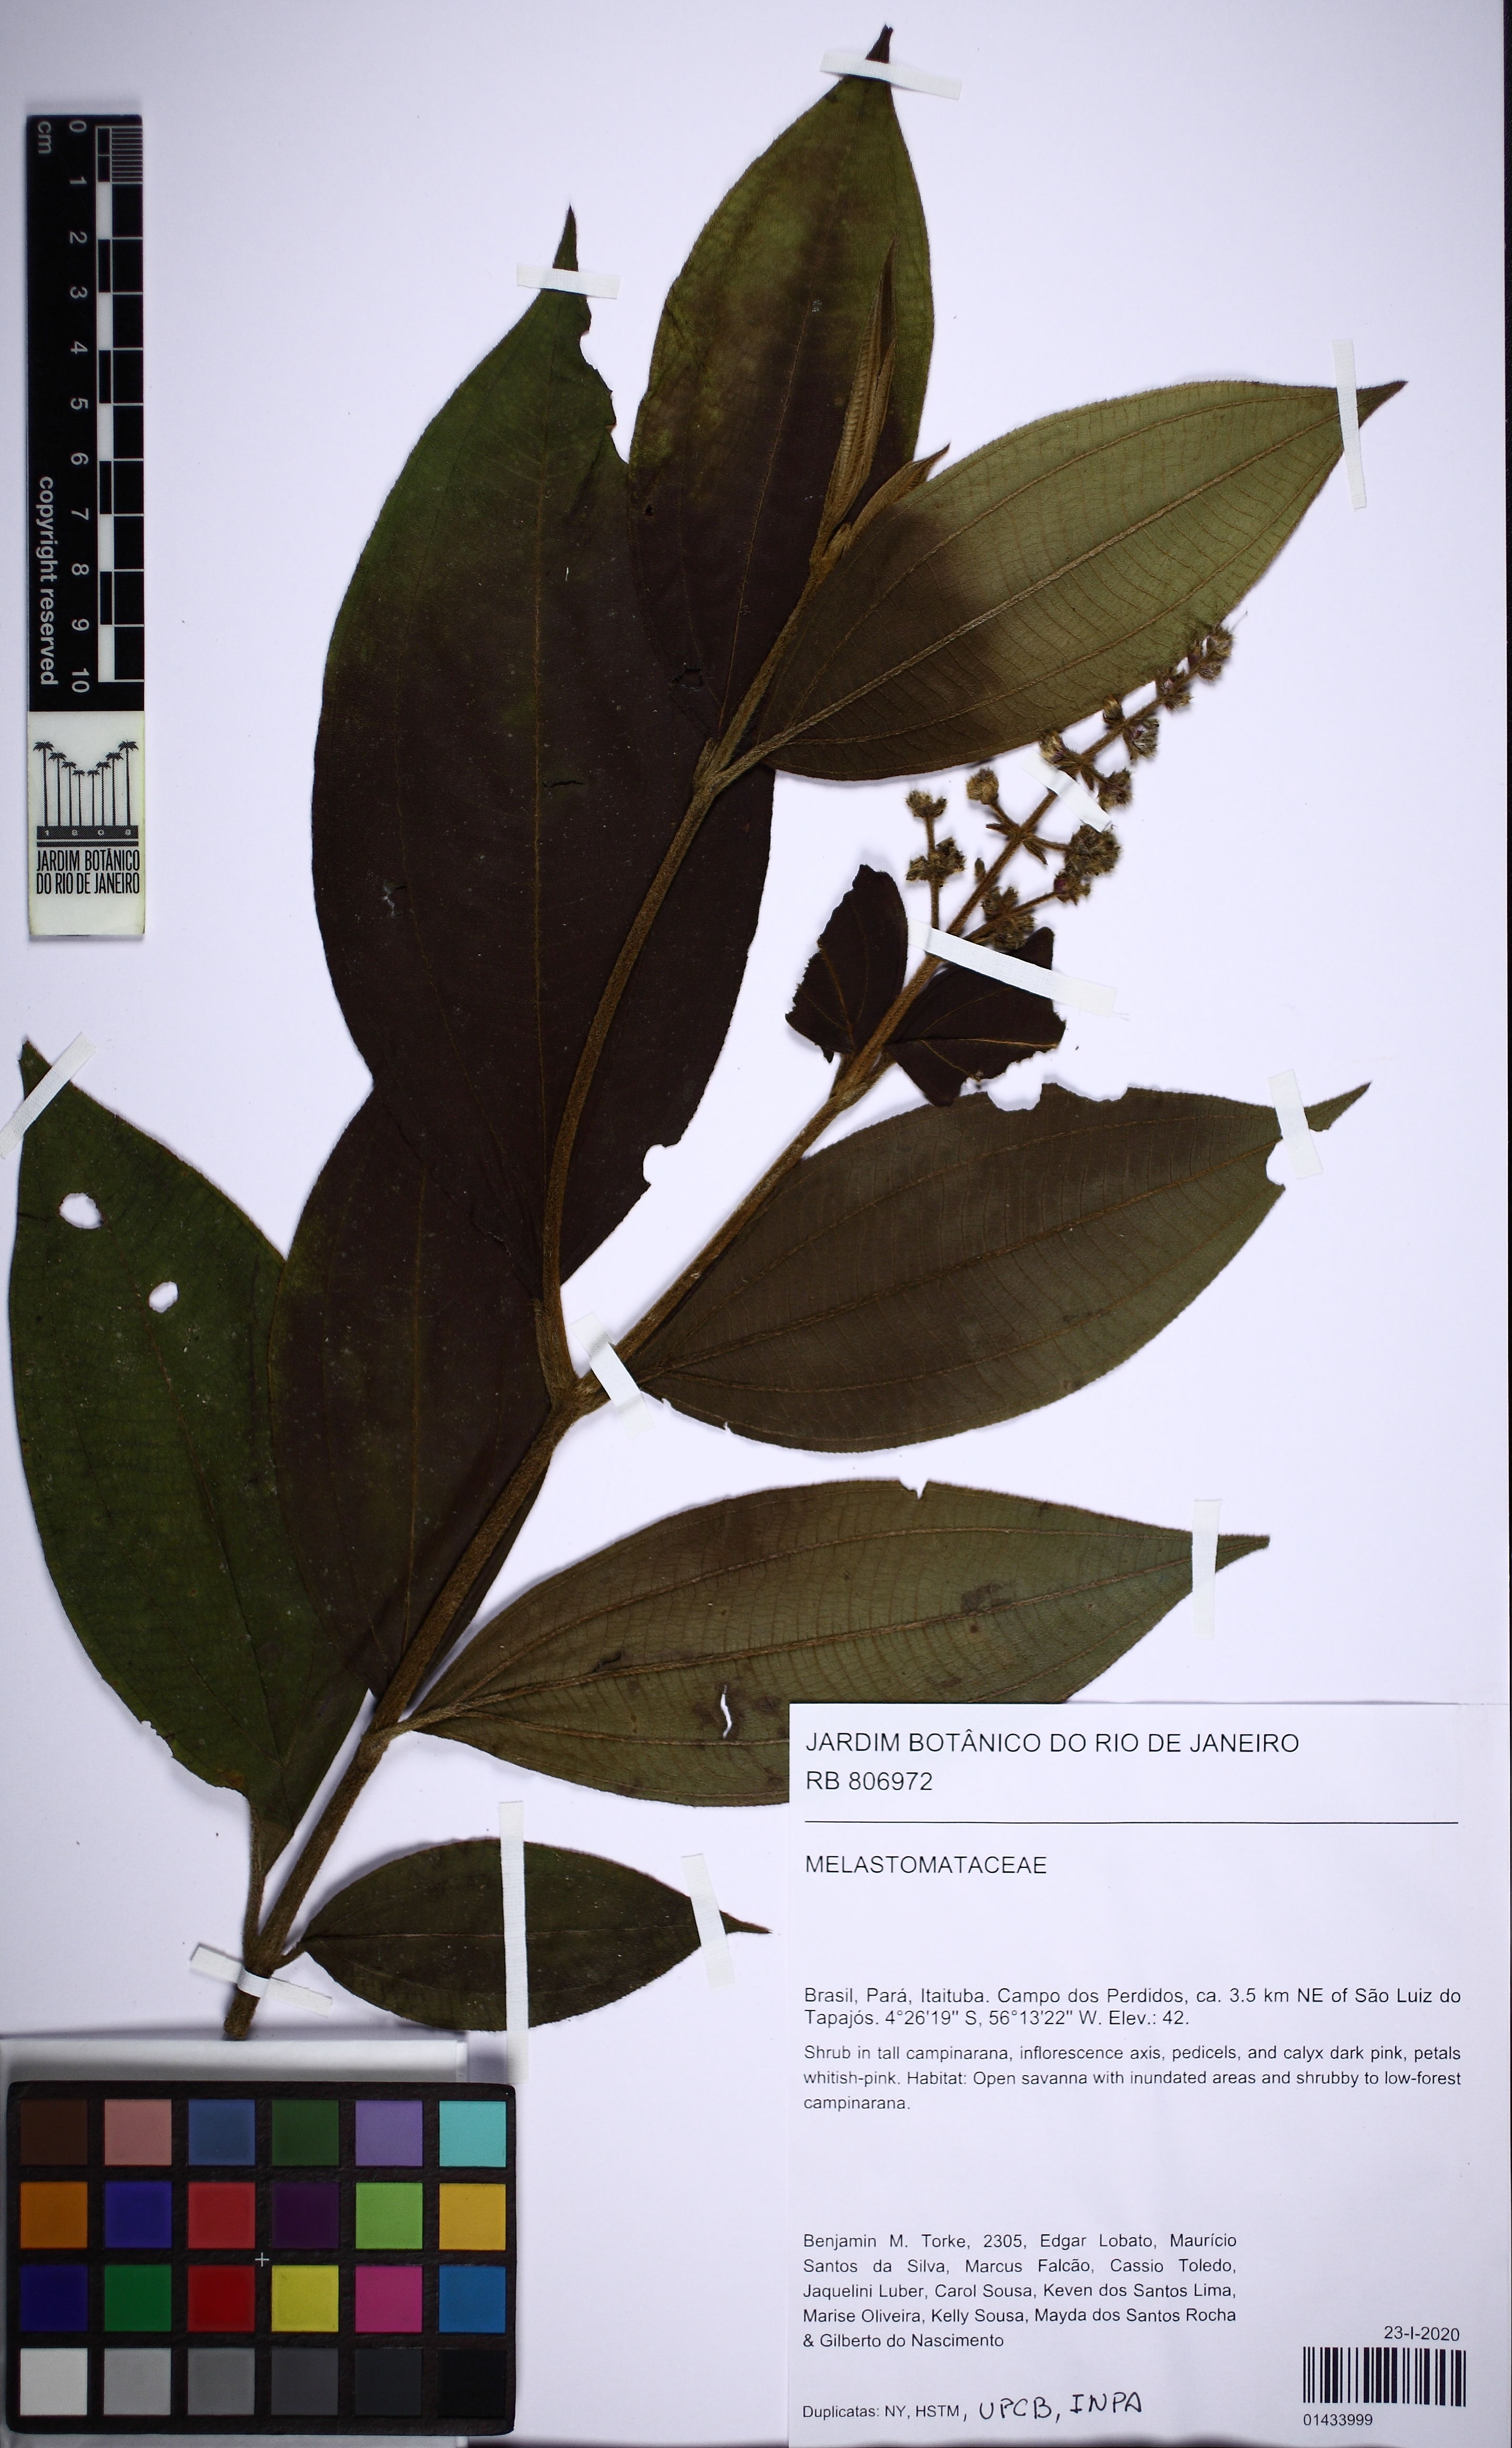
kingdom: Plantae
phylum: Tracheophyta
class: Magnoliopsida
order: Myrtales
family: Melastomataceae
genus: Miconia
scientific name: Miconia
